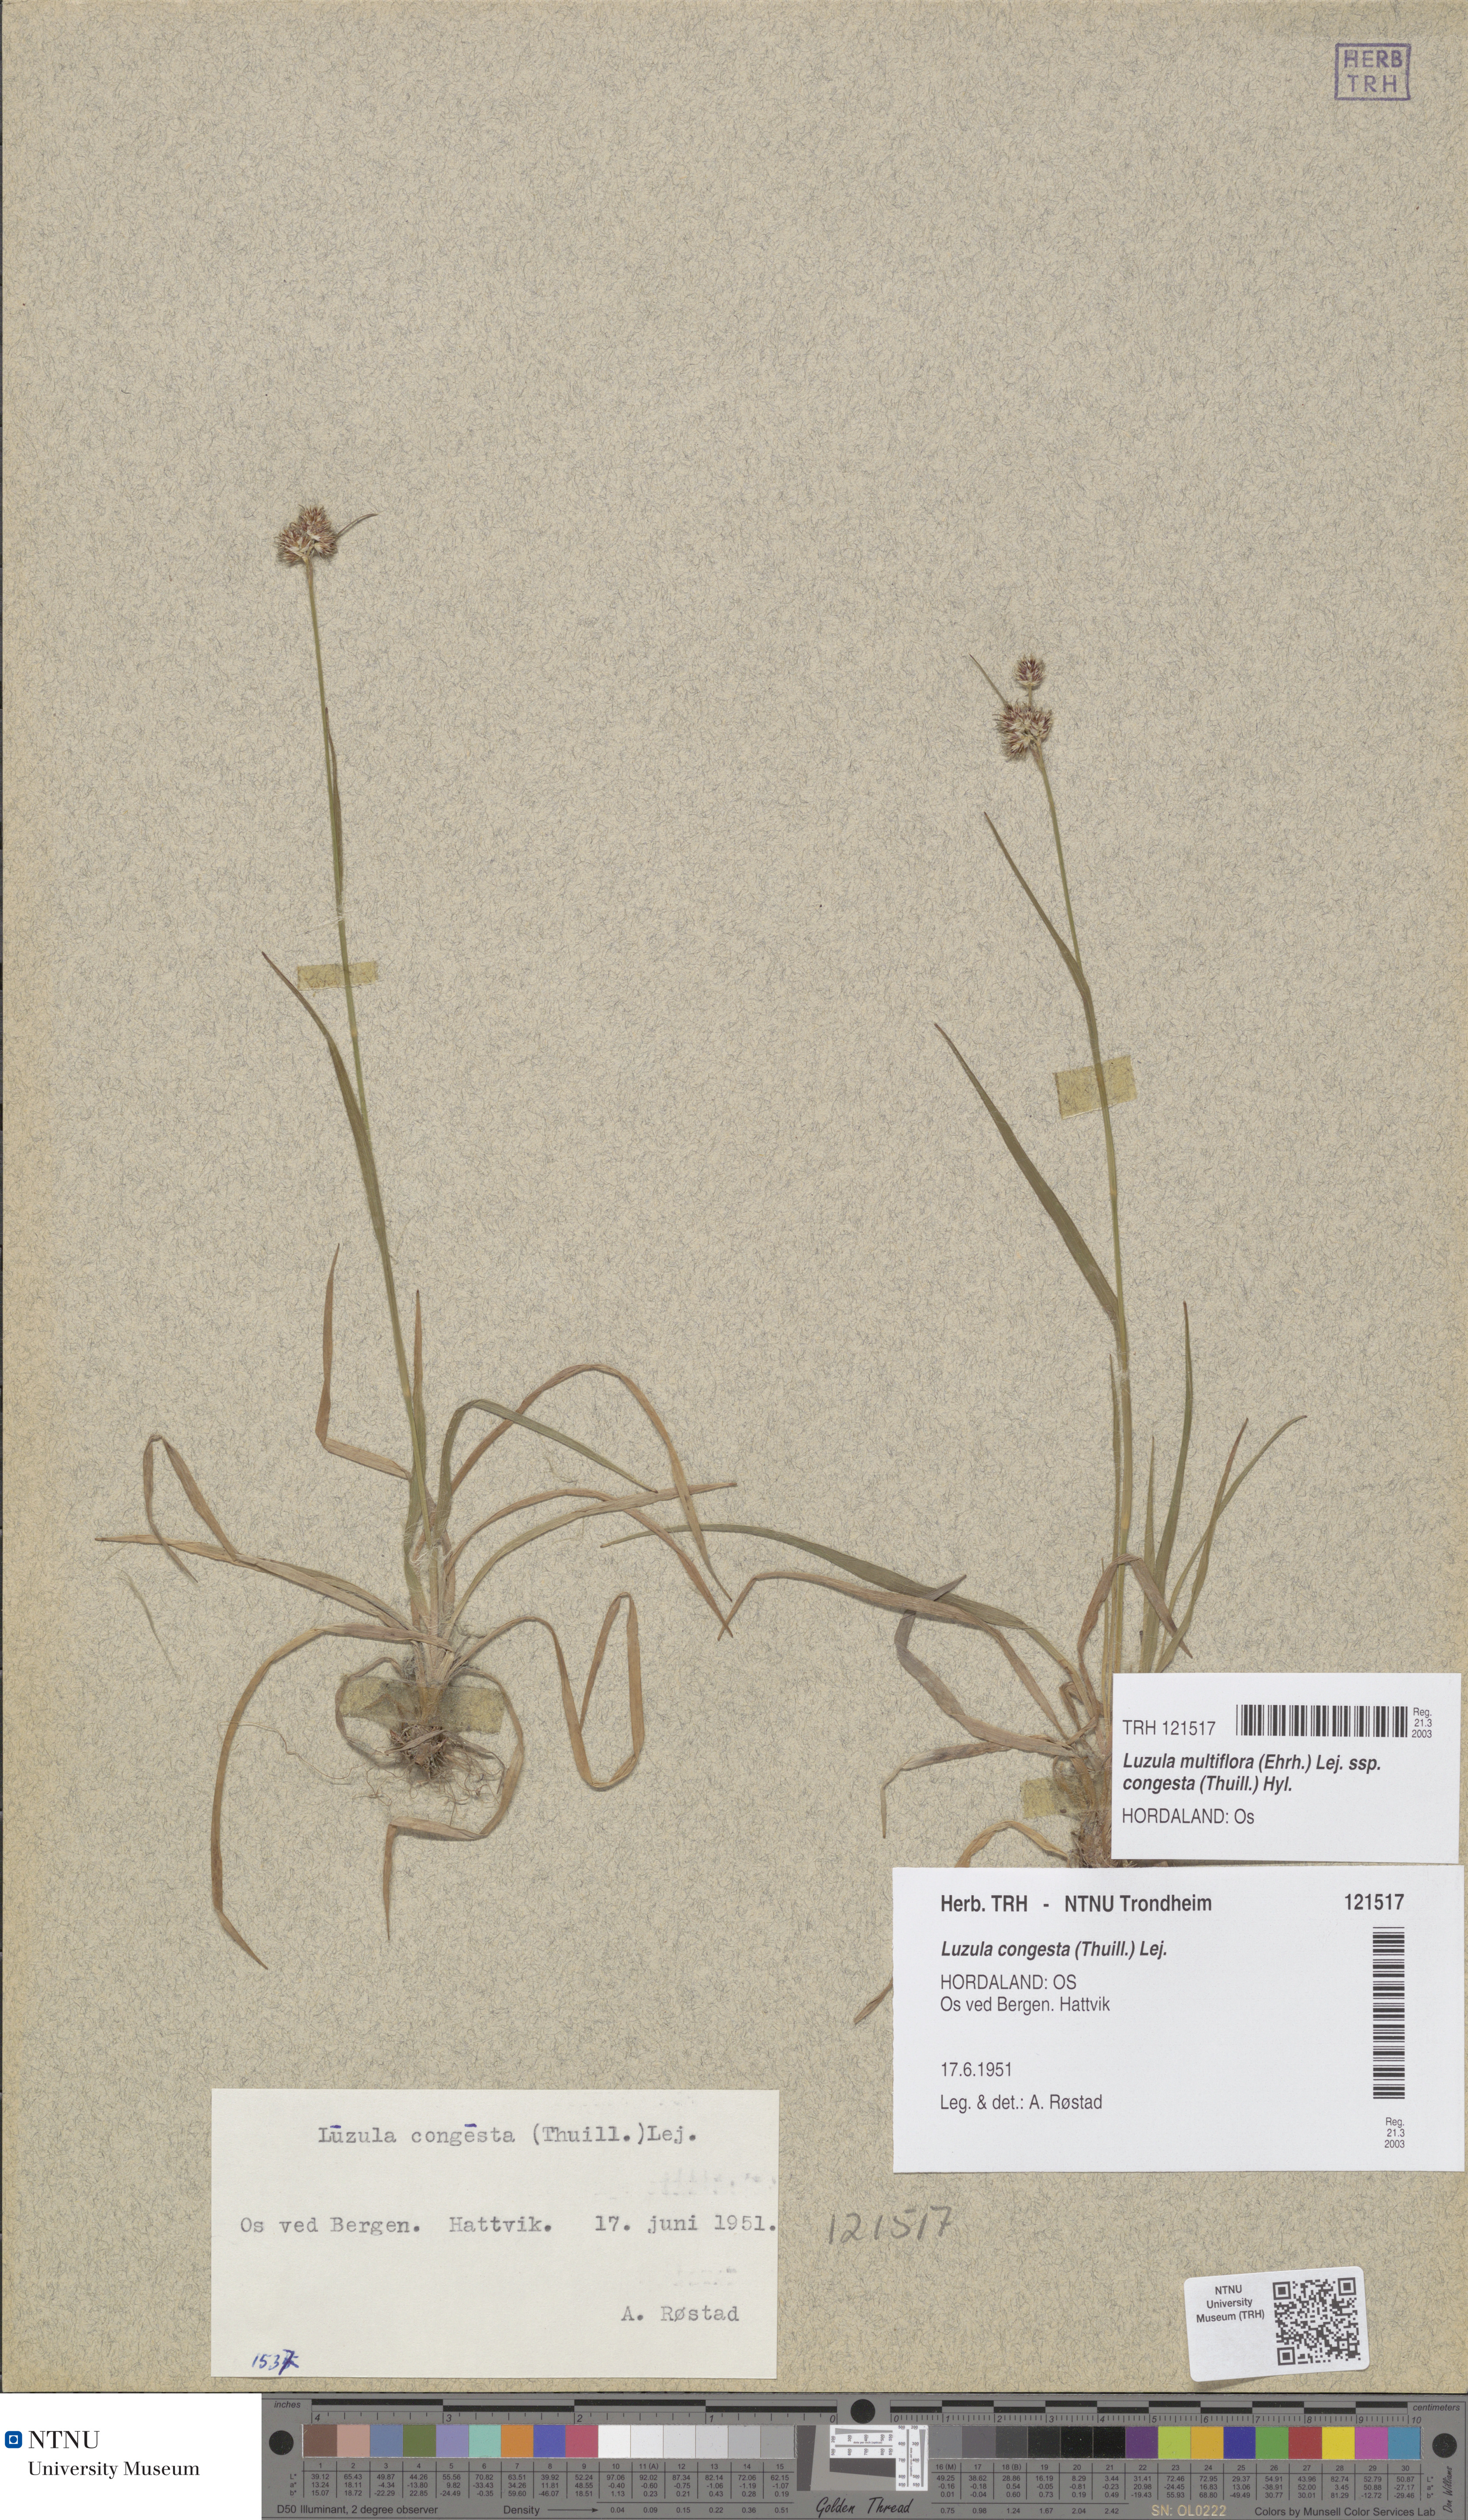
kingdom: Plantae
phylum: Tracheophyta
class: Liliopsida
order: Poales
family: Juncaceae
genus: Luzula
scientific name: Luzula congesta
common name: Heath woodrush
